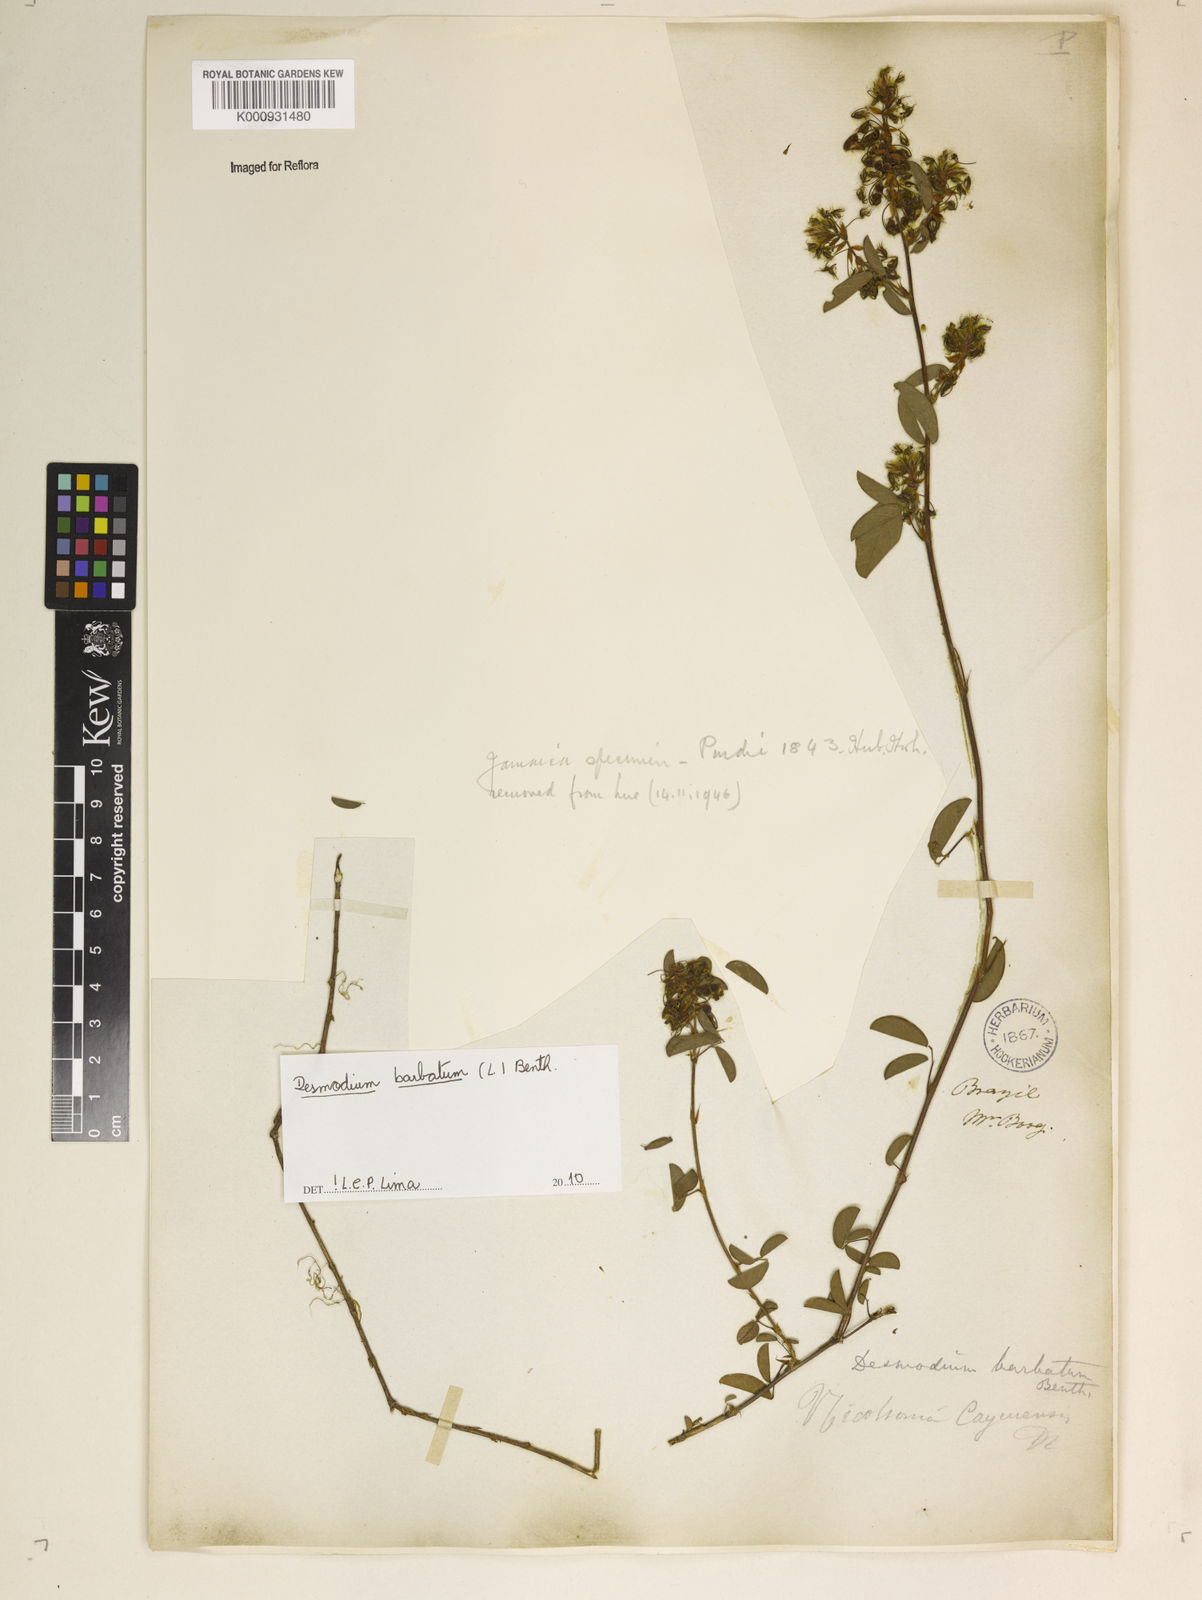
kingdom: Plantae
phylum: Tracheophyta
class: Magnoliopsida
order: Fabales
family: Fabaceae
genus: Grona
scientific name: Grona barbata
